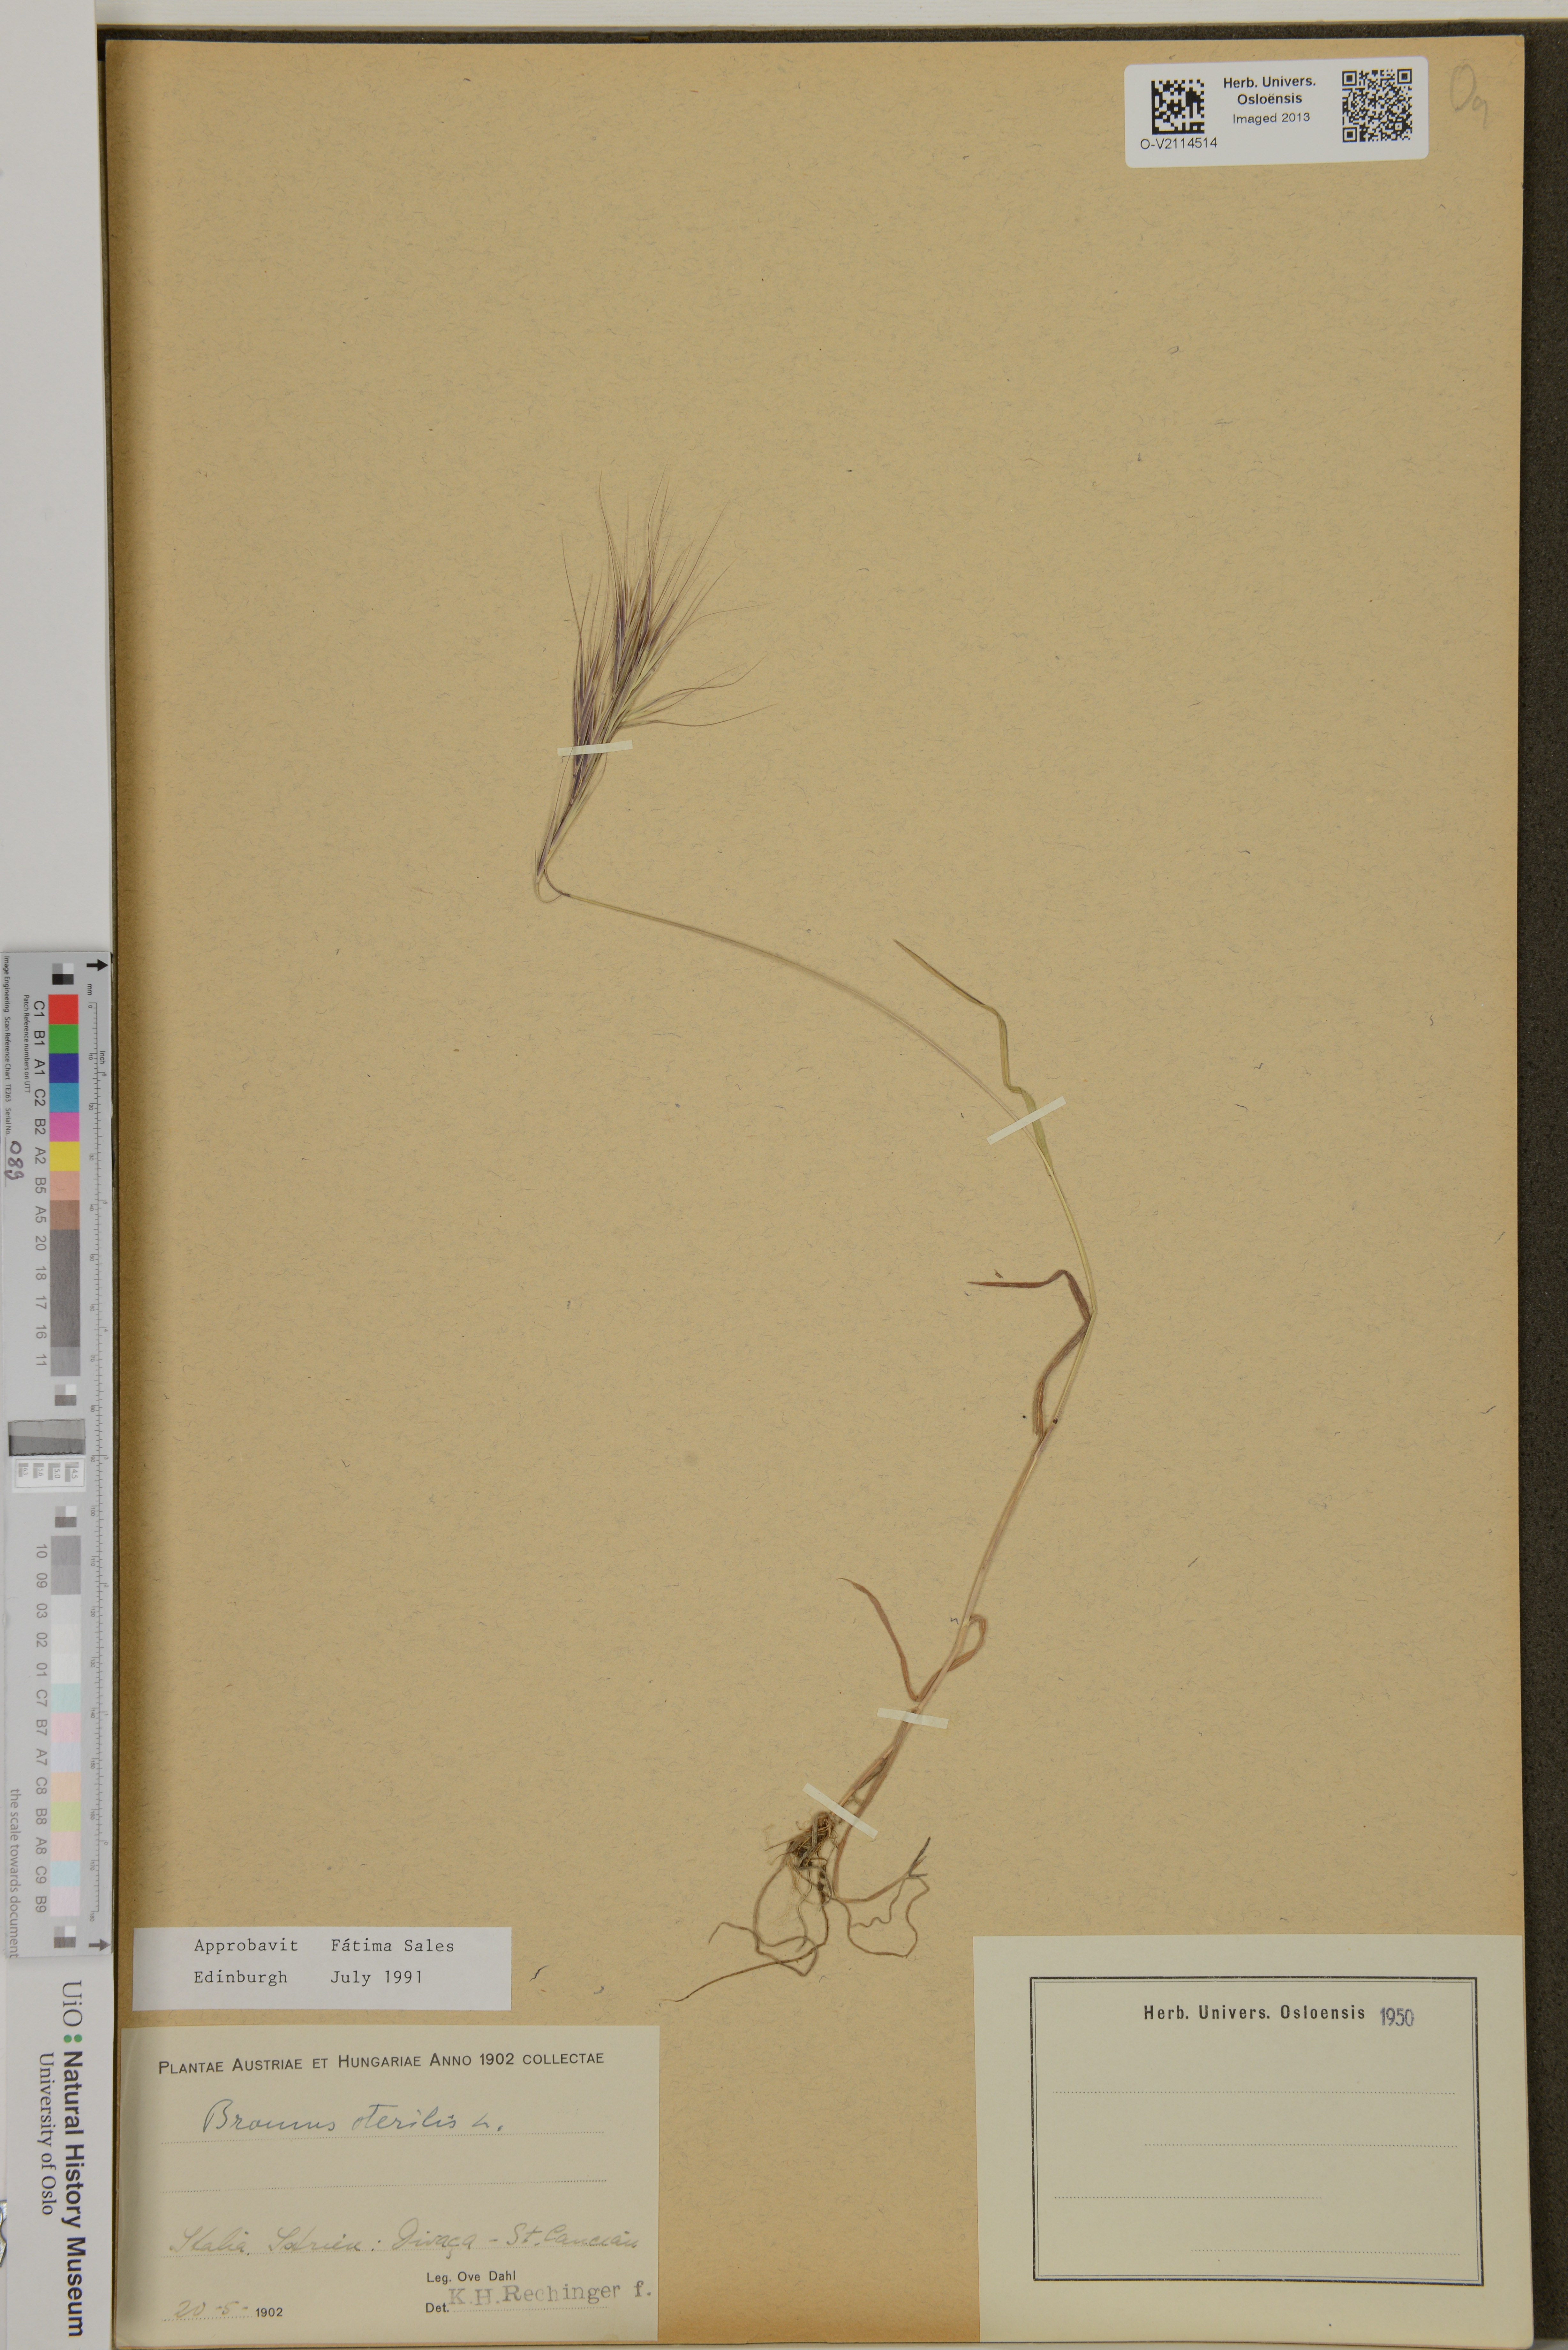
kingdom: Plantae
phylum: Tracheophyta
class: Liliopsida
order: Poales
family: Poaceae
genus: Bromus
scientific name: Bromus sterilis
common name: Poverty brome
